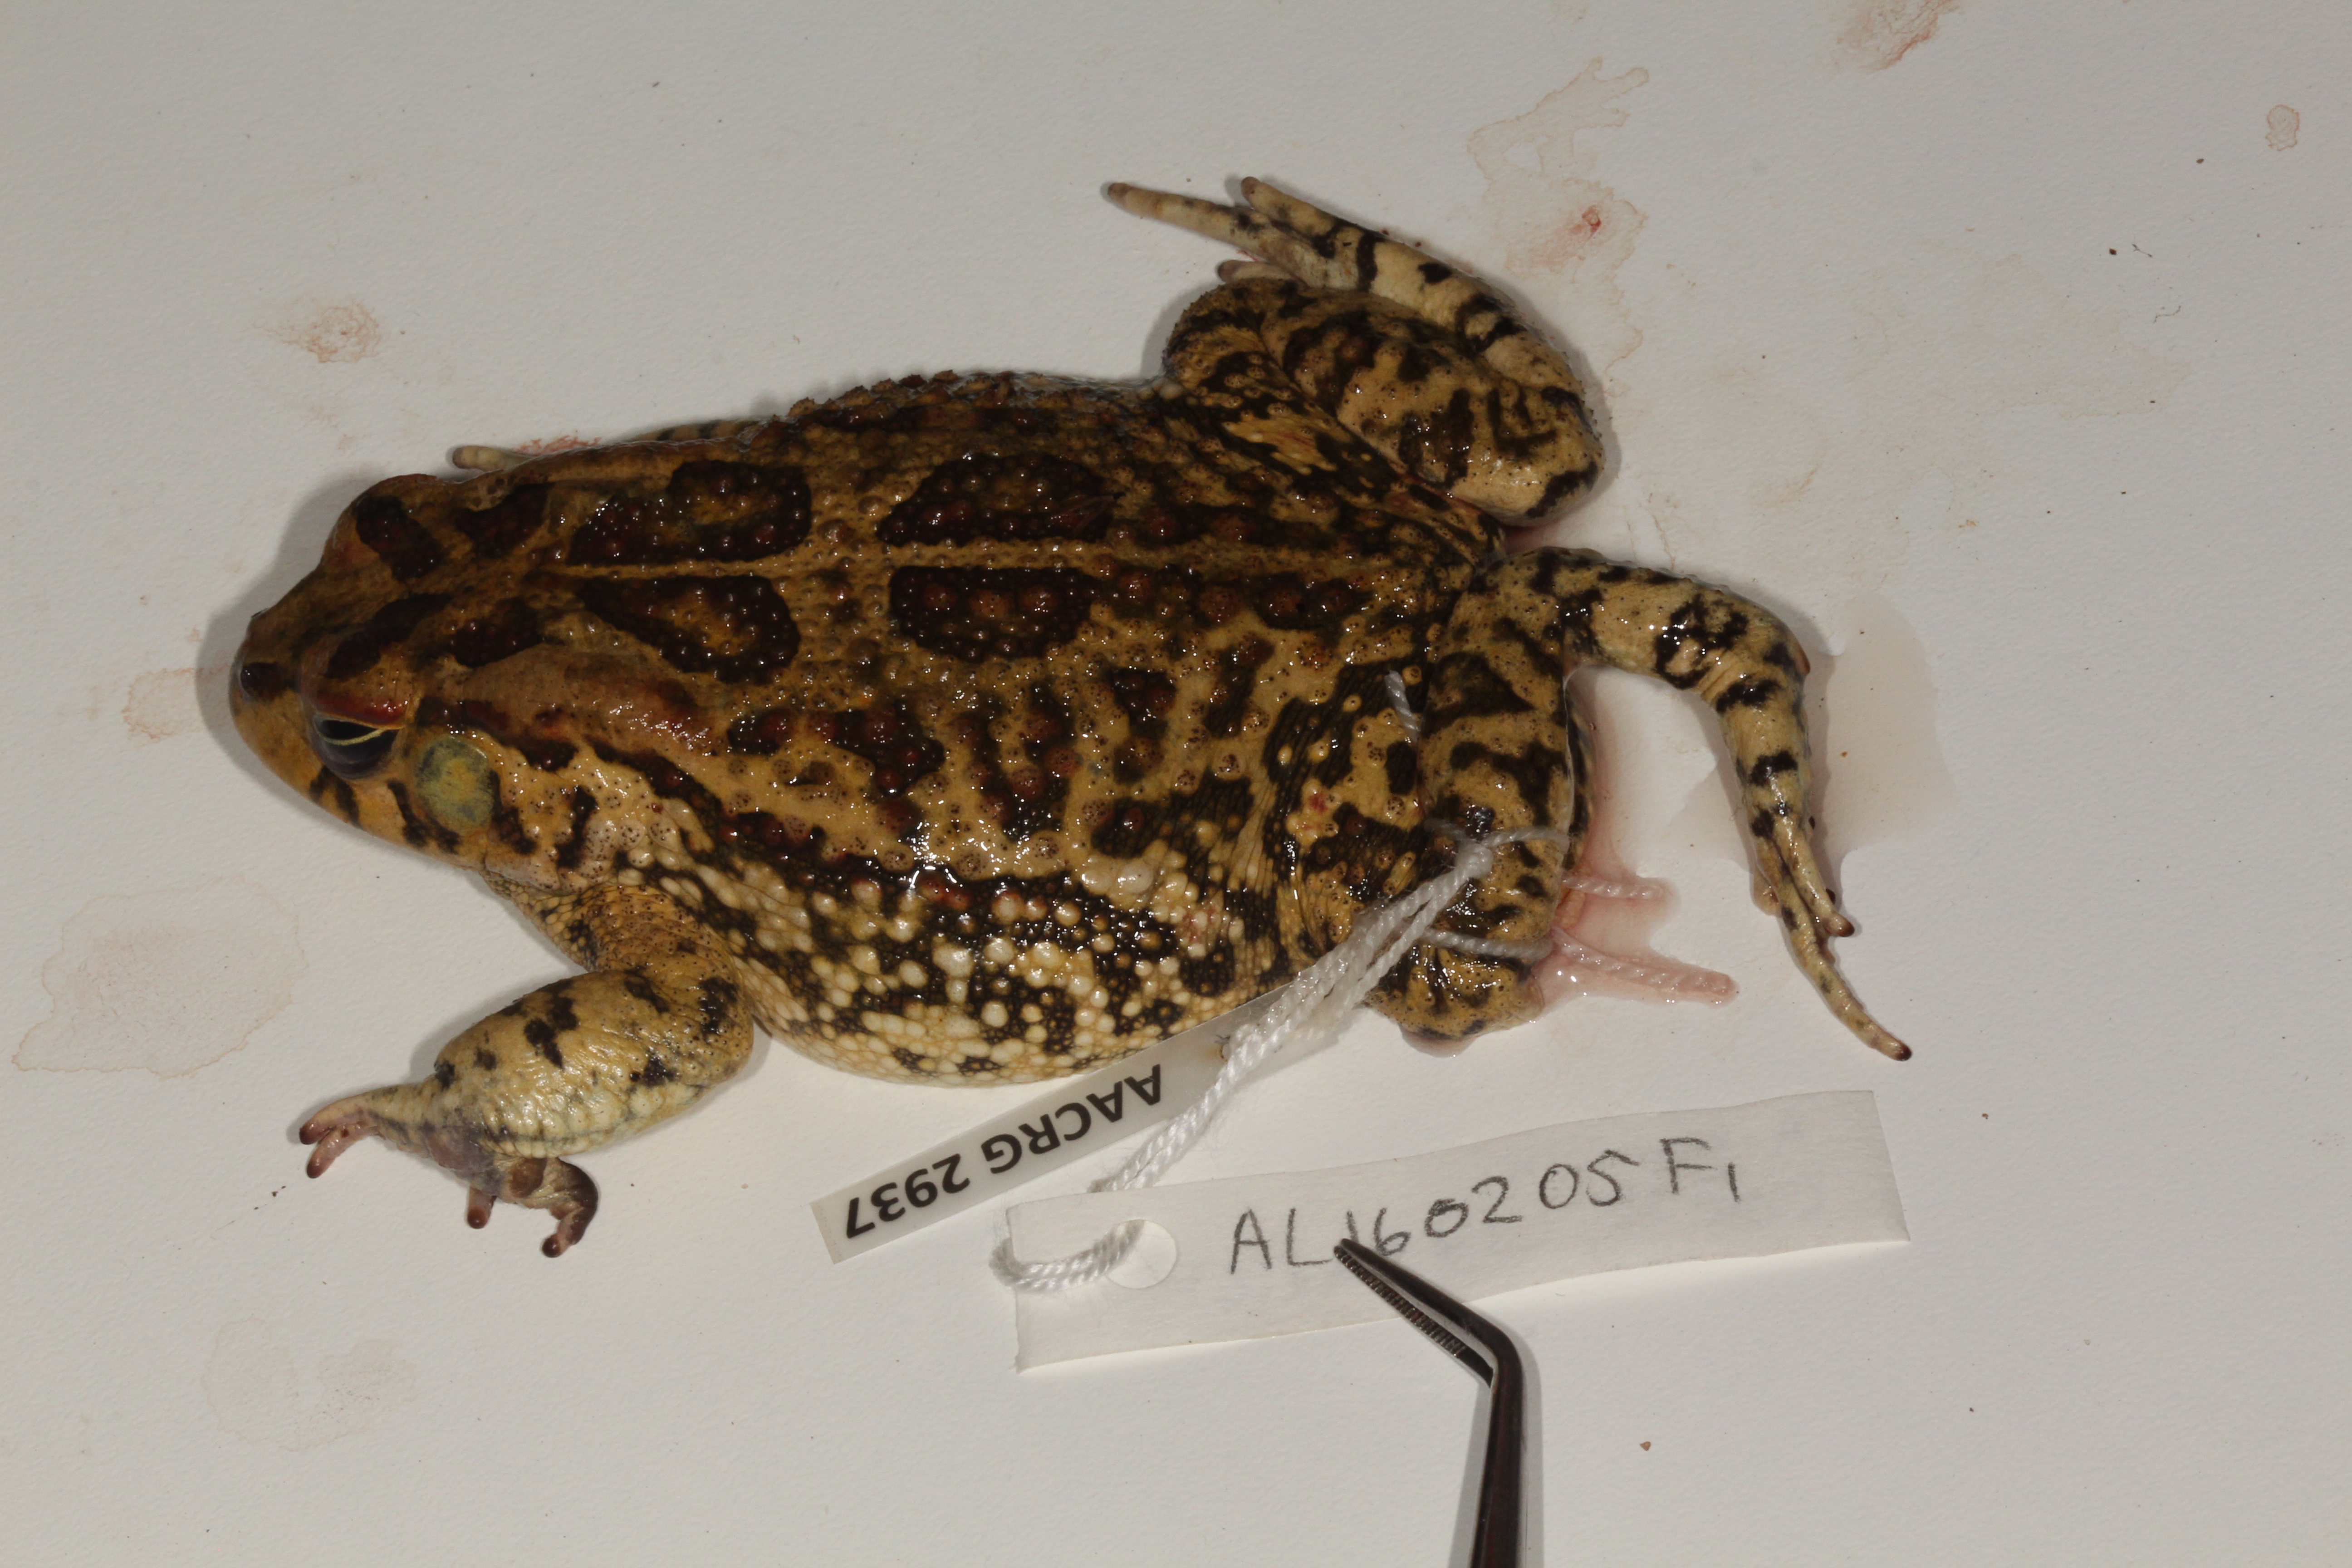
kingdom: Animalia
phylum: Chordata
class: Amphibia
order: Anura
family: Bufonidae
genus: Sclerophrys
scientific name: Sclerophrys garmani
